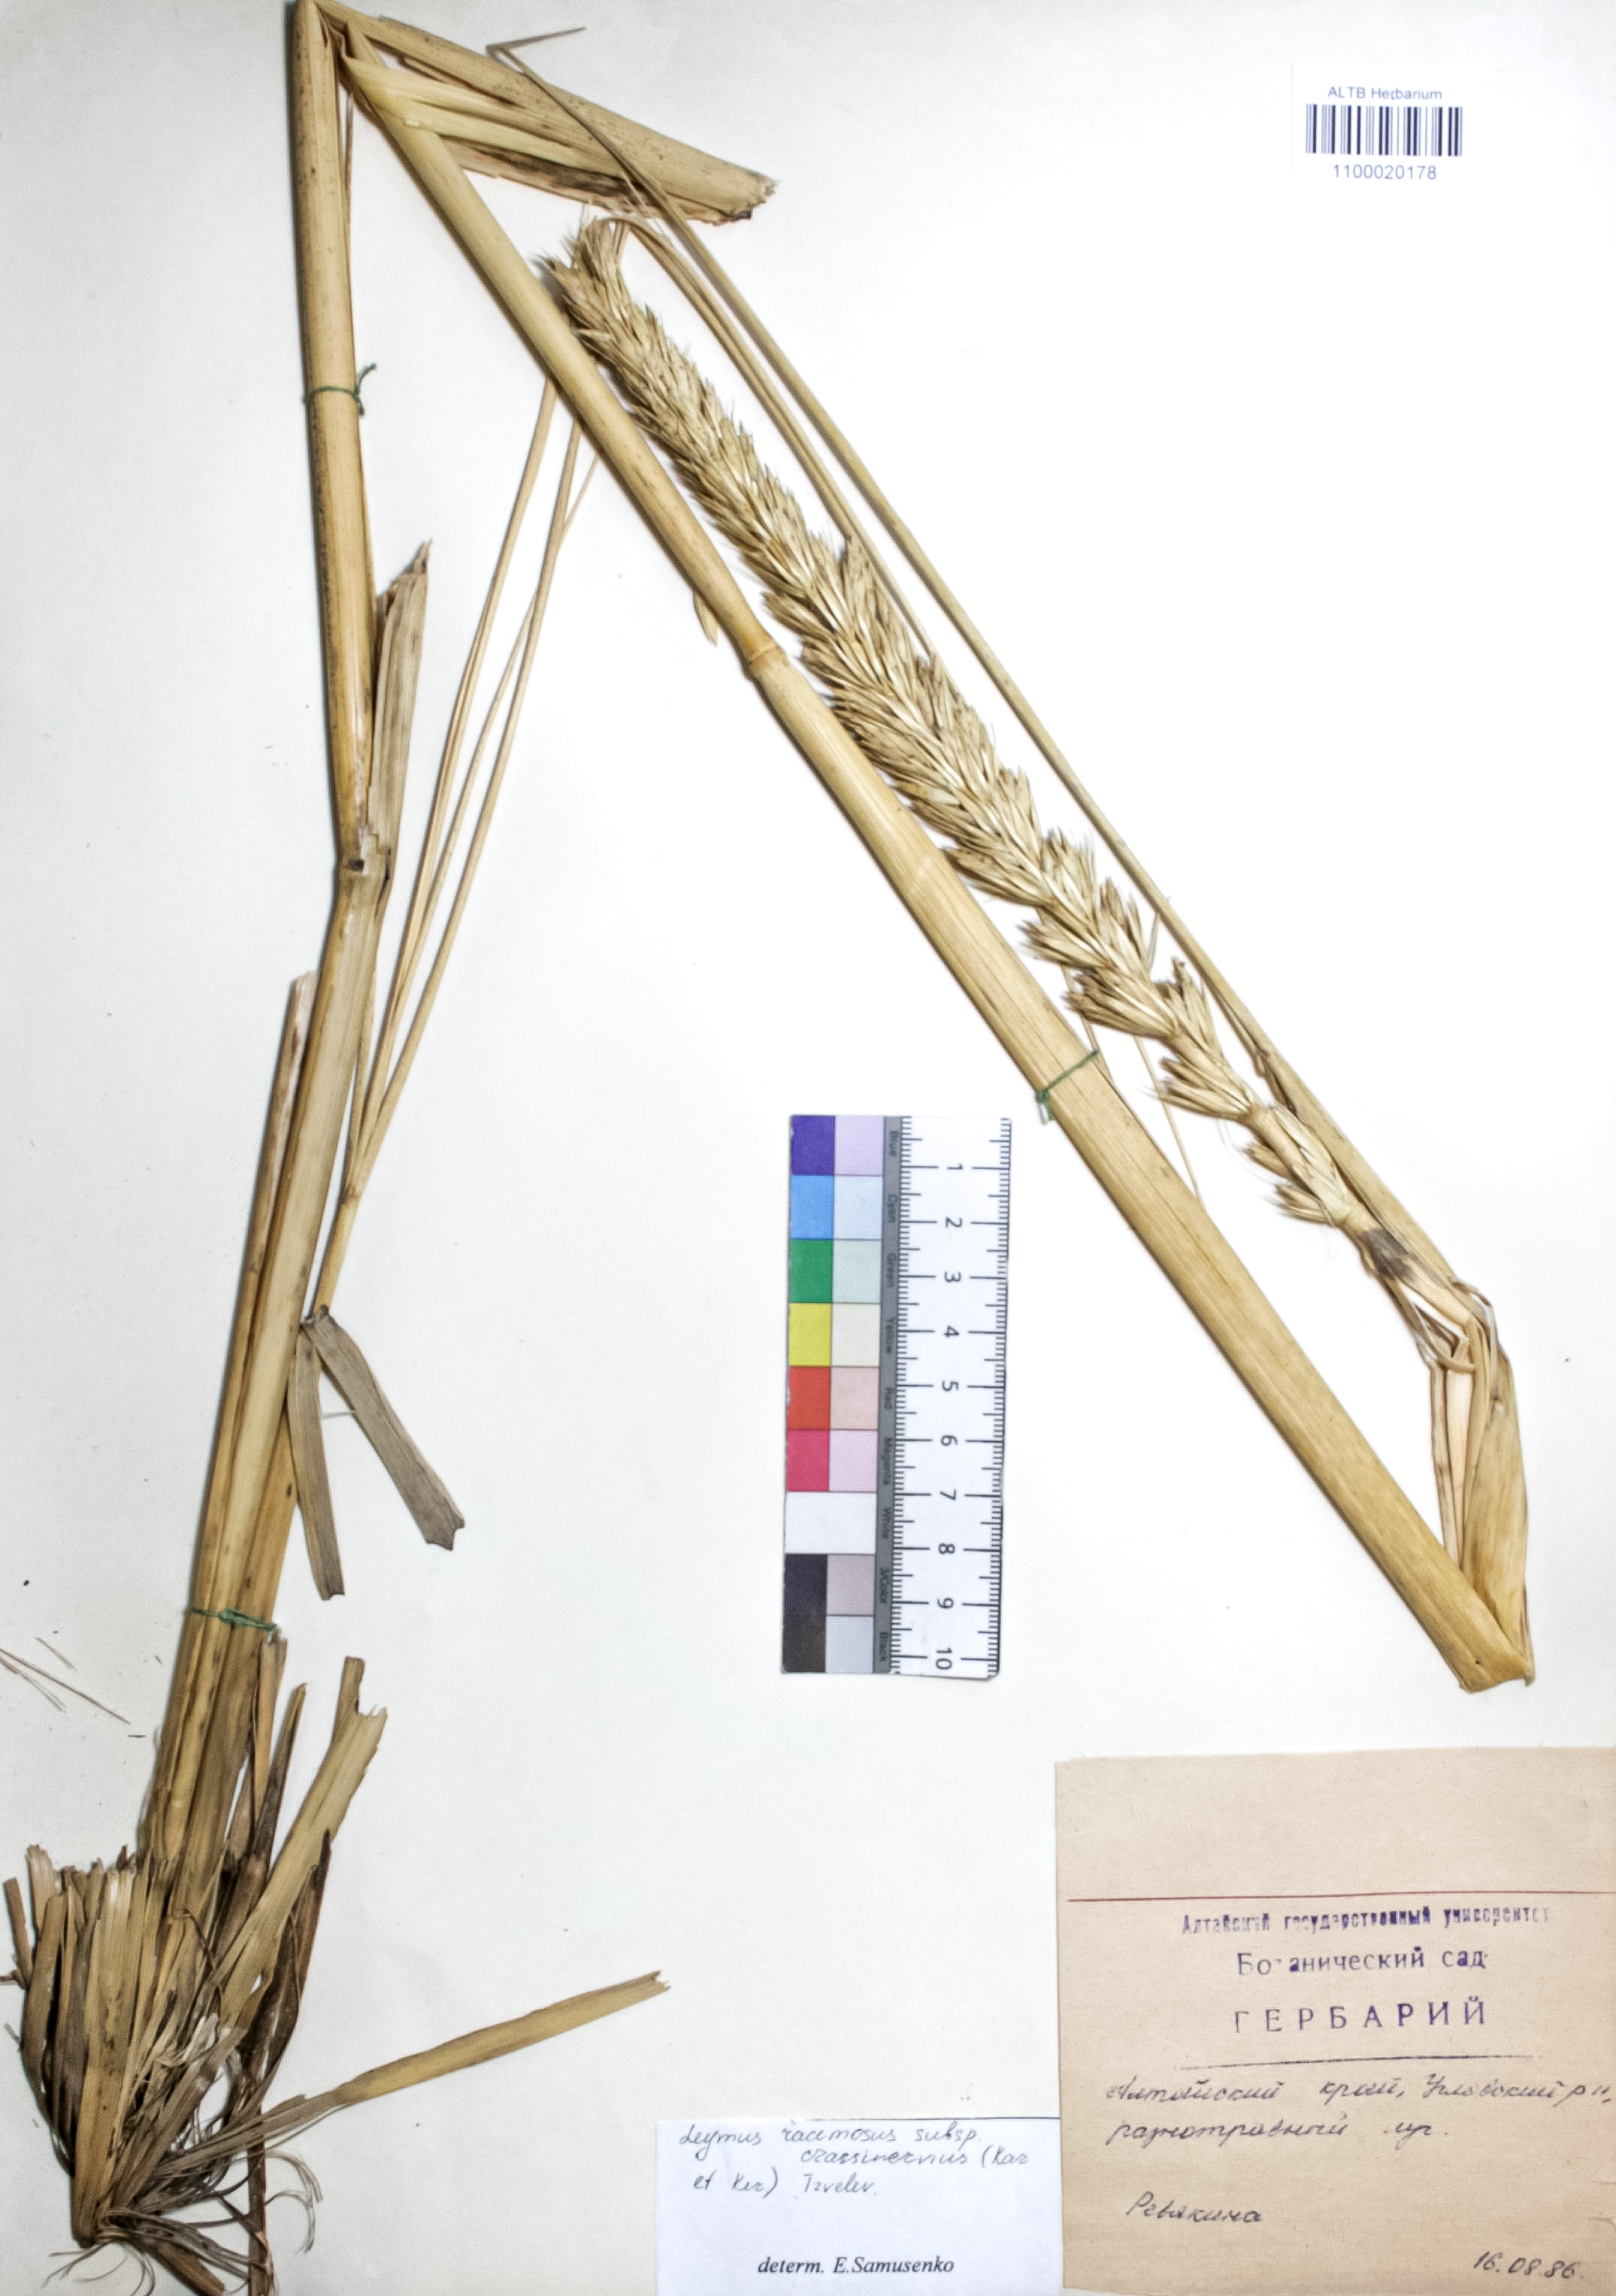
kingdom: Plantae
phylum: Tracheophyta
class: Liliopsida
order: Poales
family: Poaceae
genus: Leymus
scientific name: Leymus racemosus
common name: Mammoth wildrye
